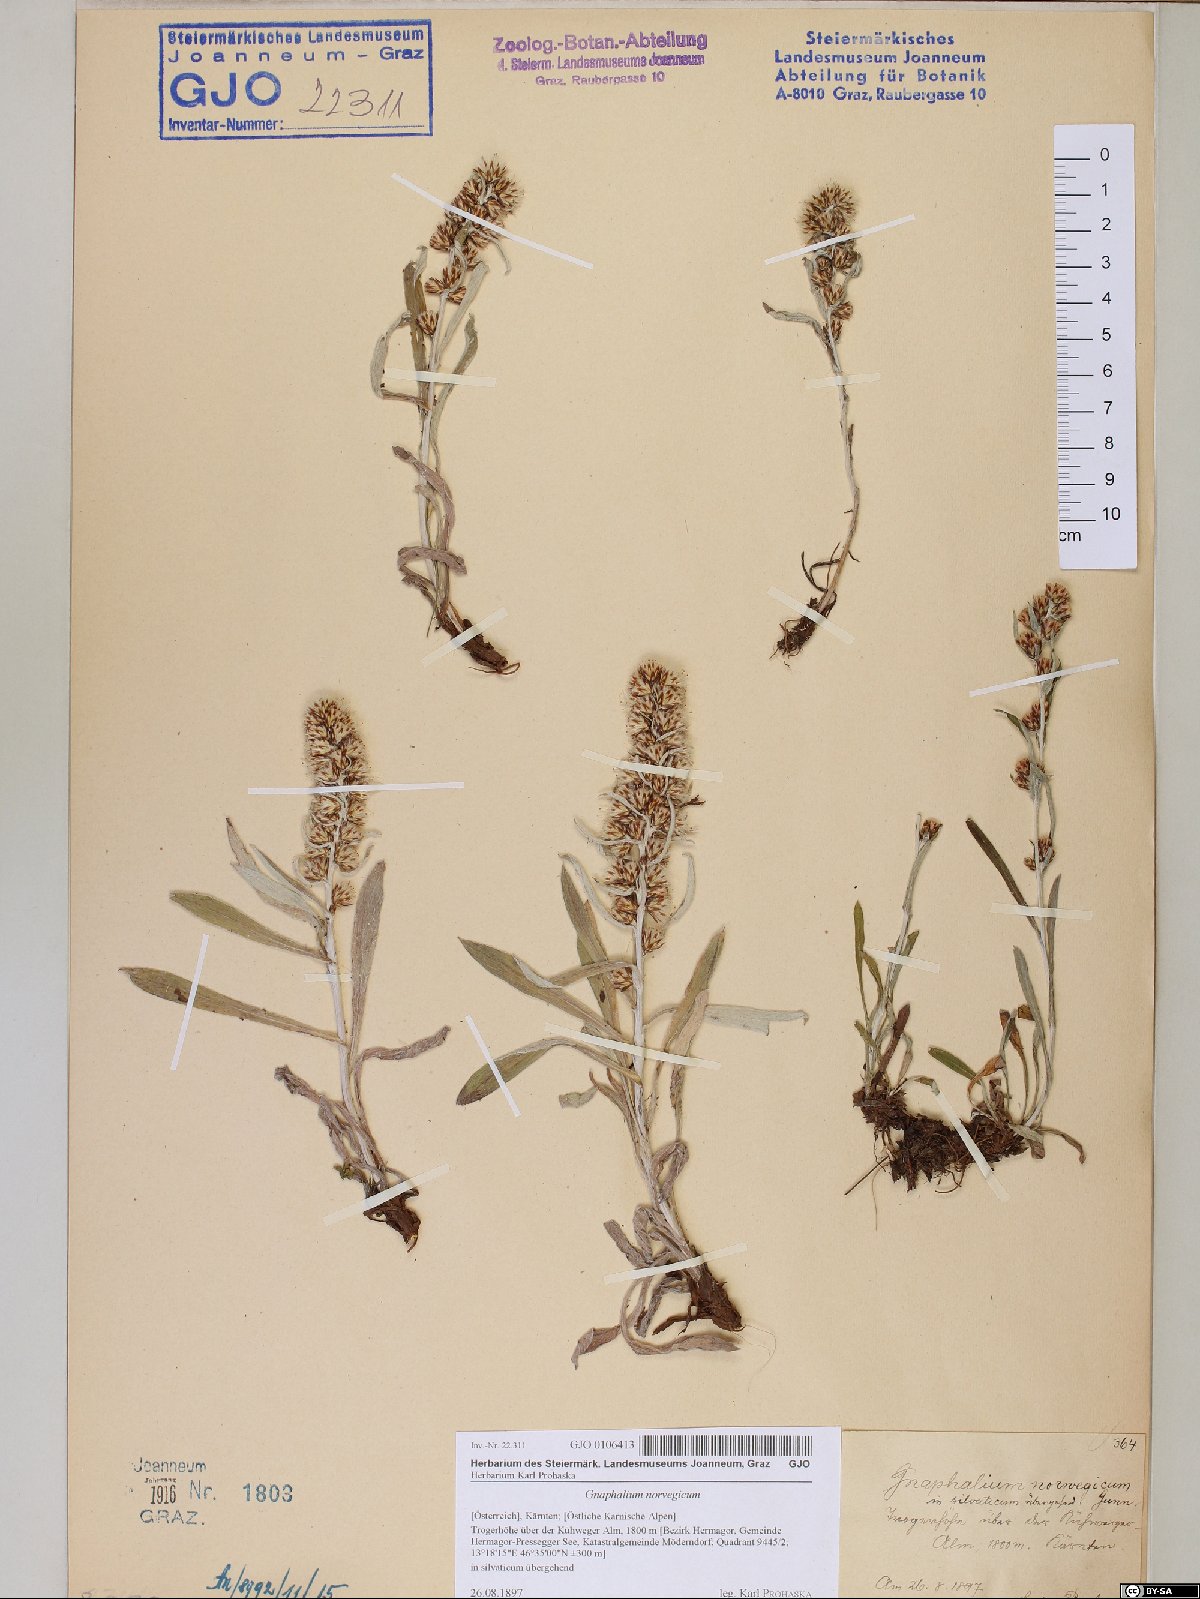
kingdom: Plantae
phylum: Tracheophyta
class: Magnoliopsida
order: Asterales
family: Asteraceae
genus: Omalotheca
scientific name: Omalotheca norvegica
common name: Norwegian arctic-cudweed
